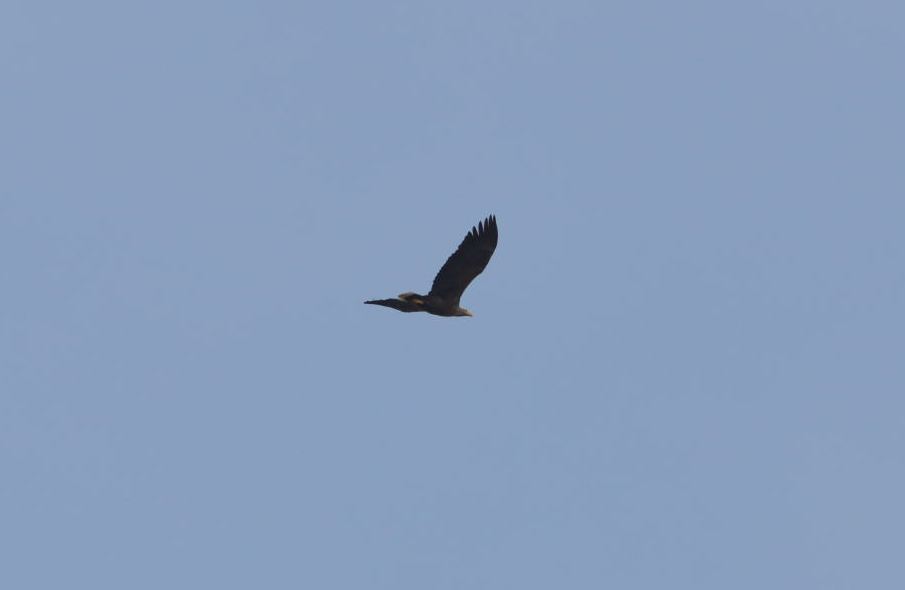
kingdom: Animalia
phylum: Chordata
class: Aves
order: Accipitriformes
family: Accipitridae
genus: Haliaeetus
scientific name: Haliaeetus albicilla
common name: White-tailed eagle
